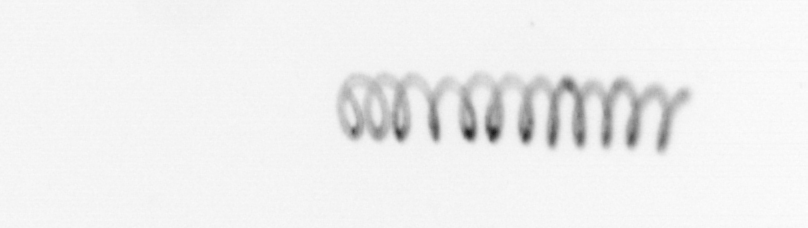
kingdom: Chromista
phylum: Ochrophyta
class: Bacillariophyceae
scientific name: Bacillariophyceae
